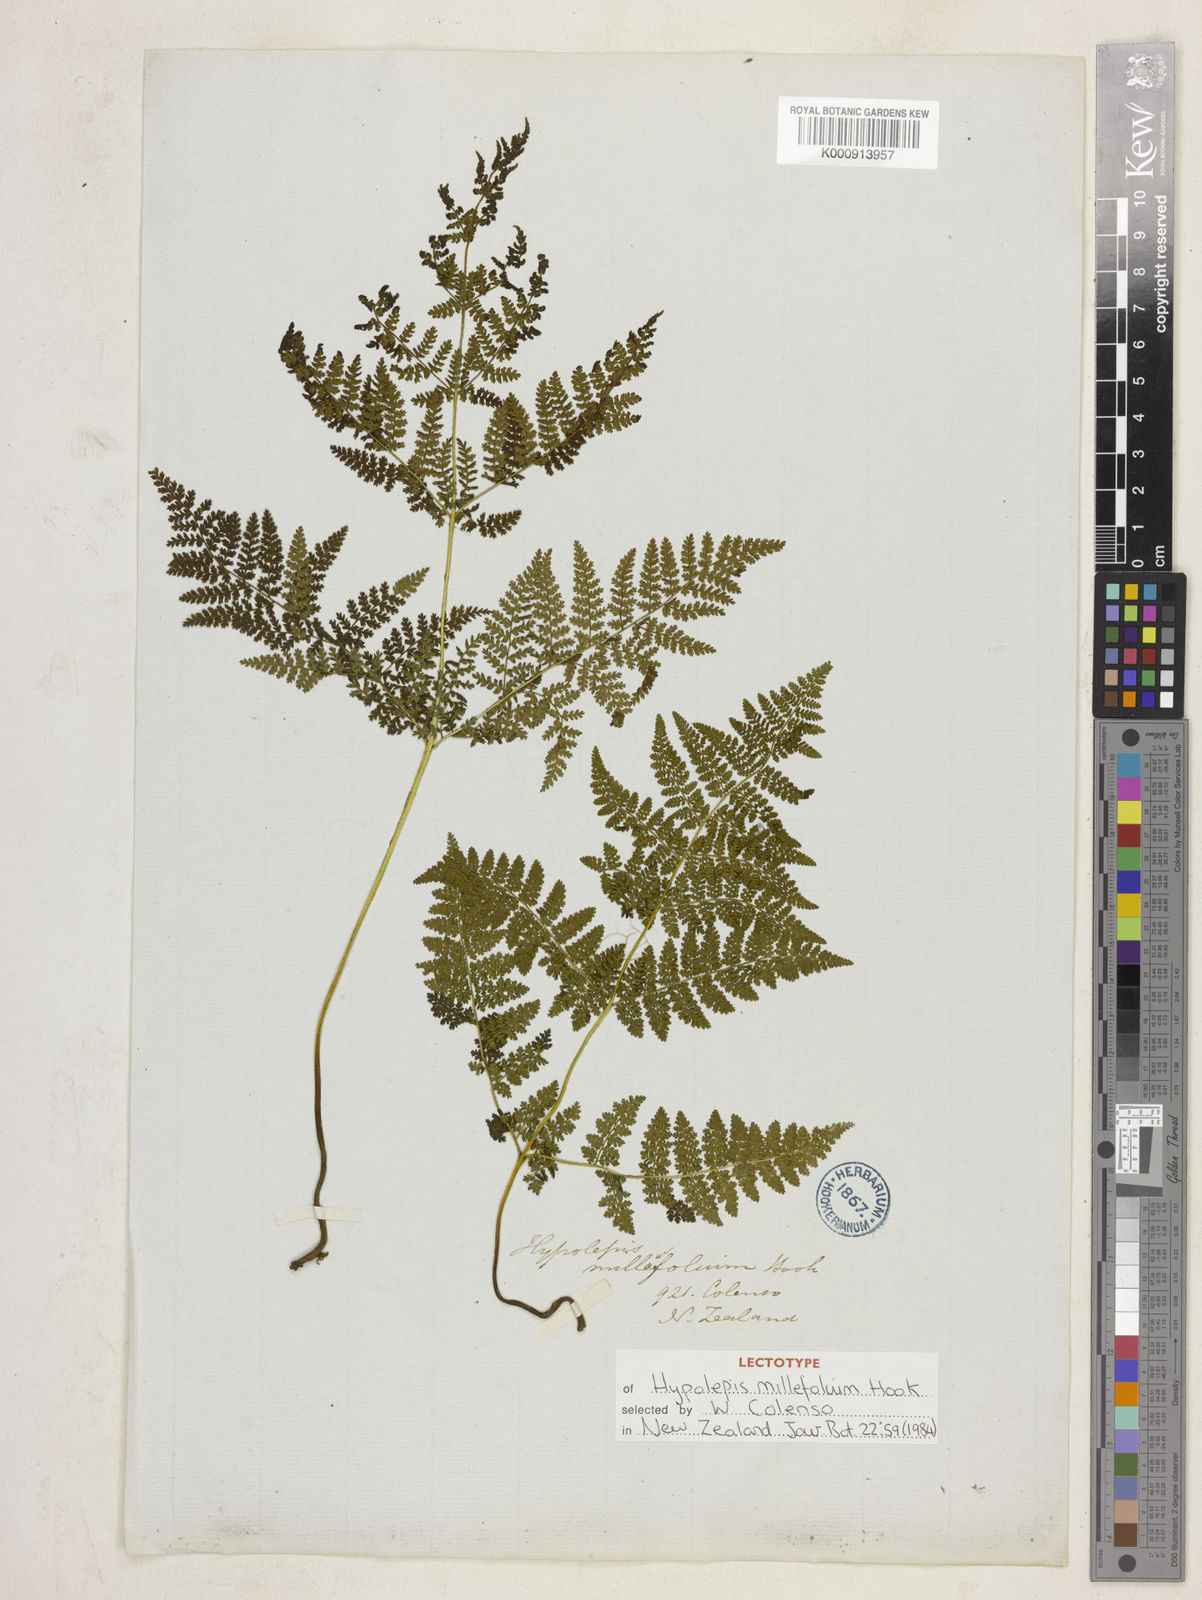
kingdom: Plantae
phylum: Tracheophyta
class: Polypodiopsida
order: Polypodiales
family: Dennstaedtiaceae
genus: Hypolepis
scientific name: Hypolepis millefolium
